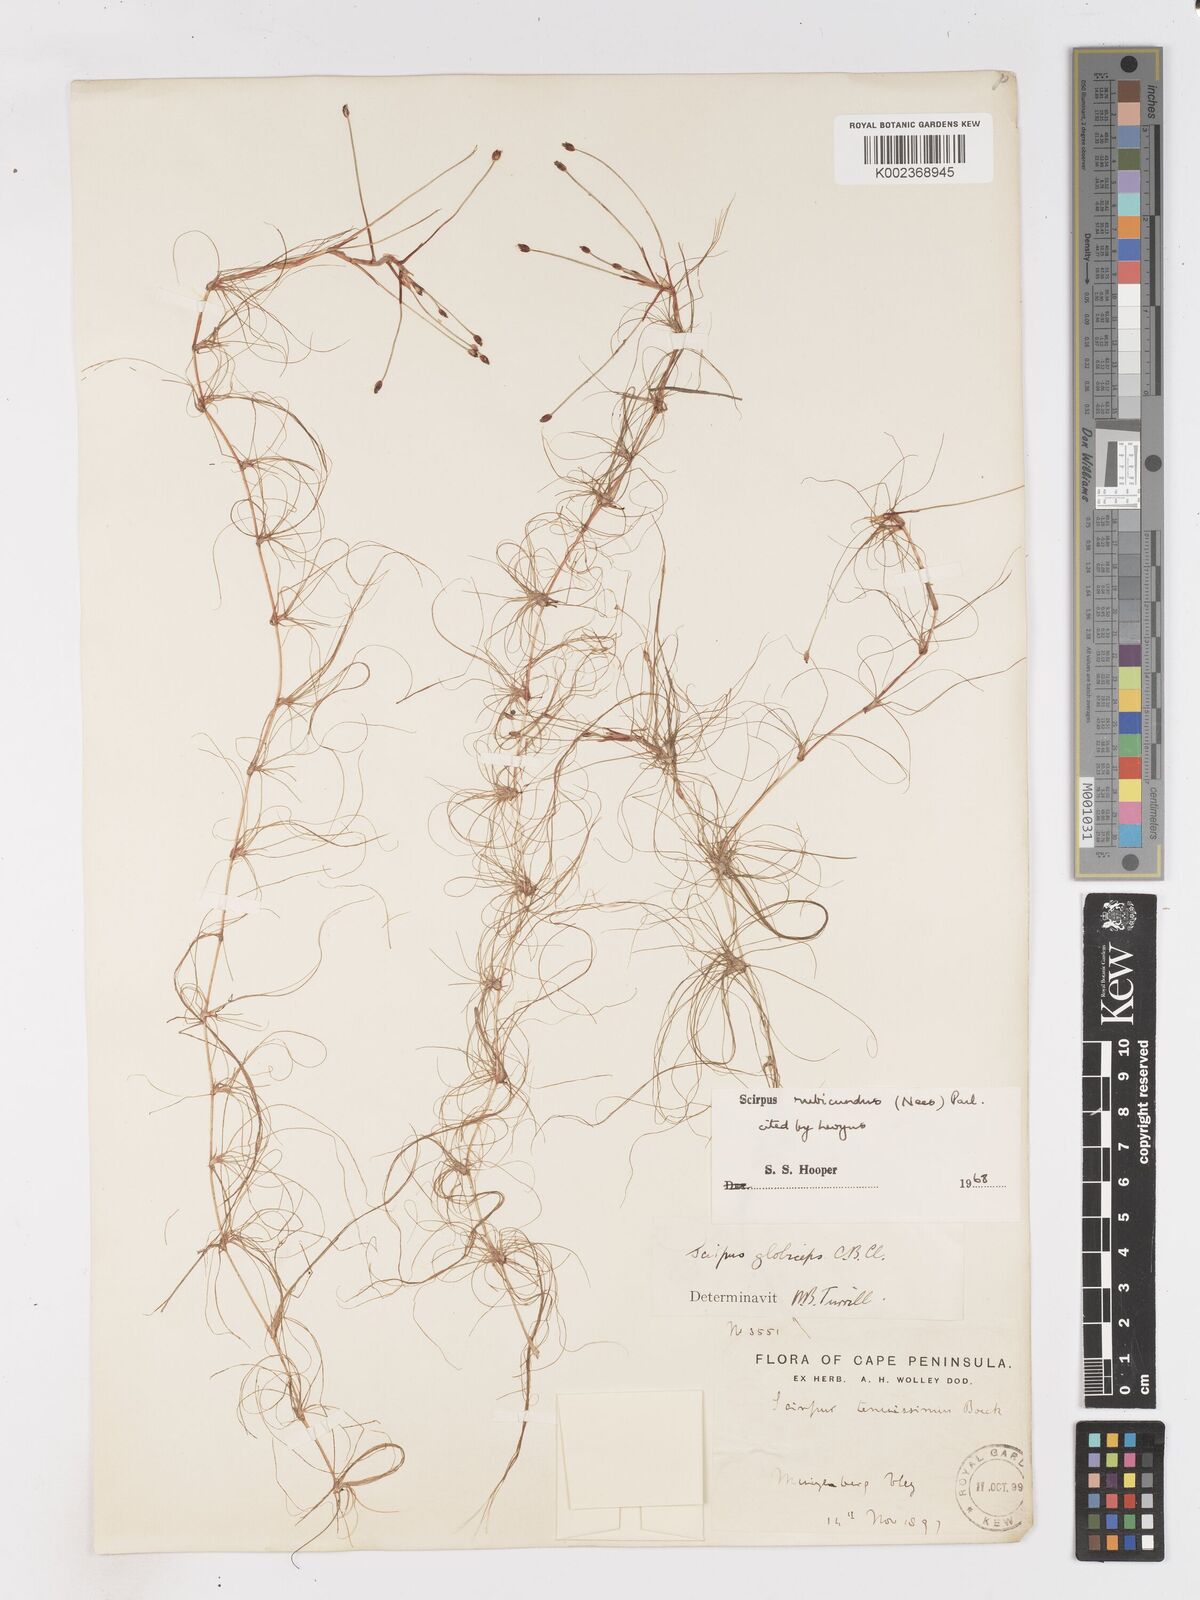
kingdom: Plantae
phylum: Tracheophyta
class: Liliopsida
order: Poales
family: Cyperaceae
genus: Isolepis
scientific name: Isolepis rubicunda
